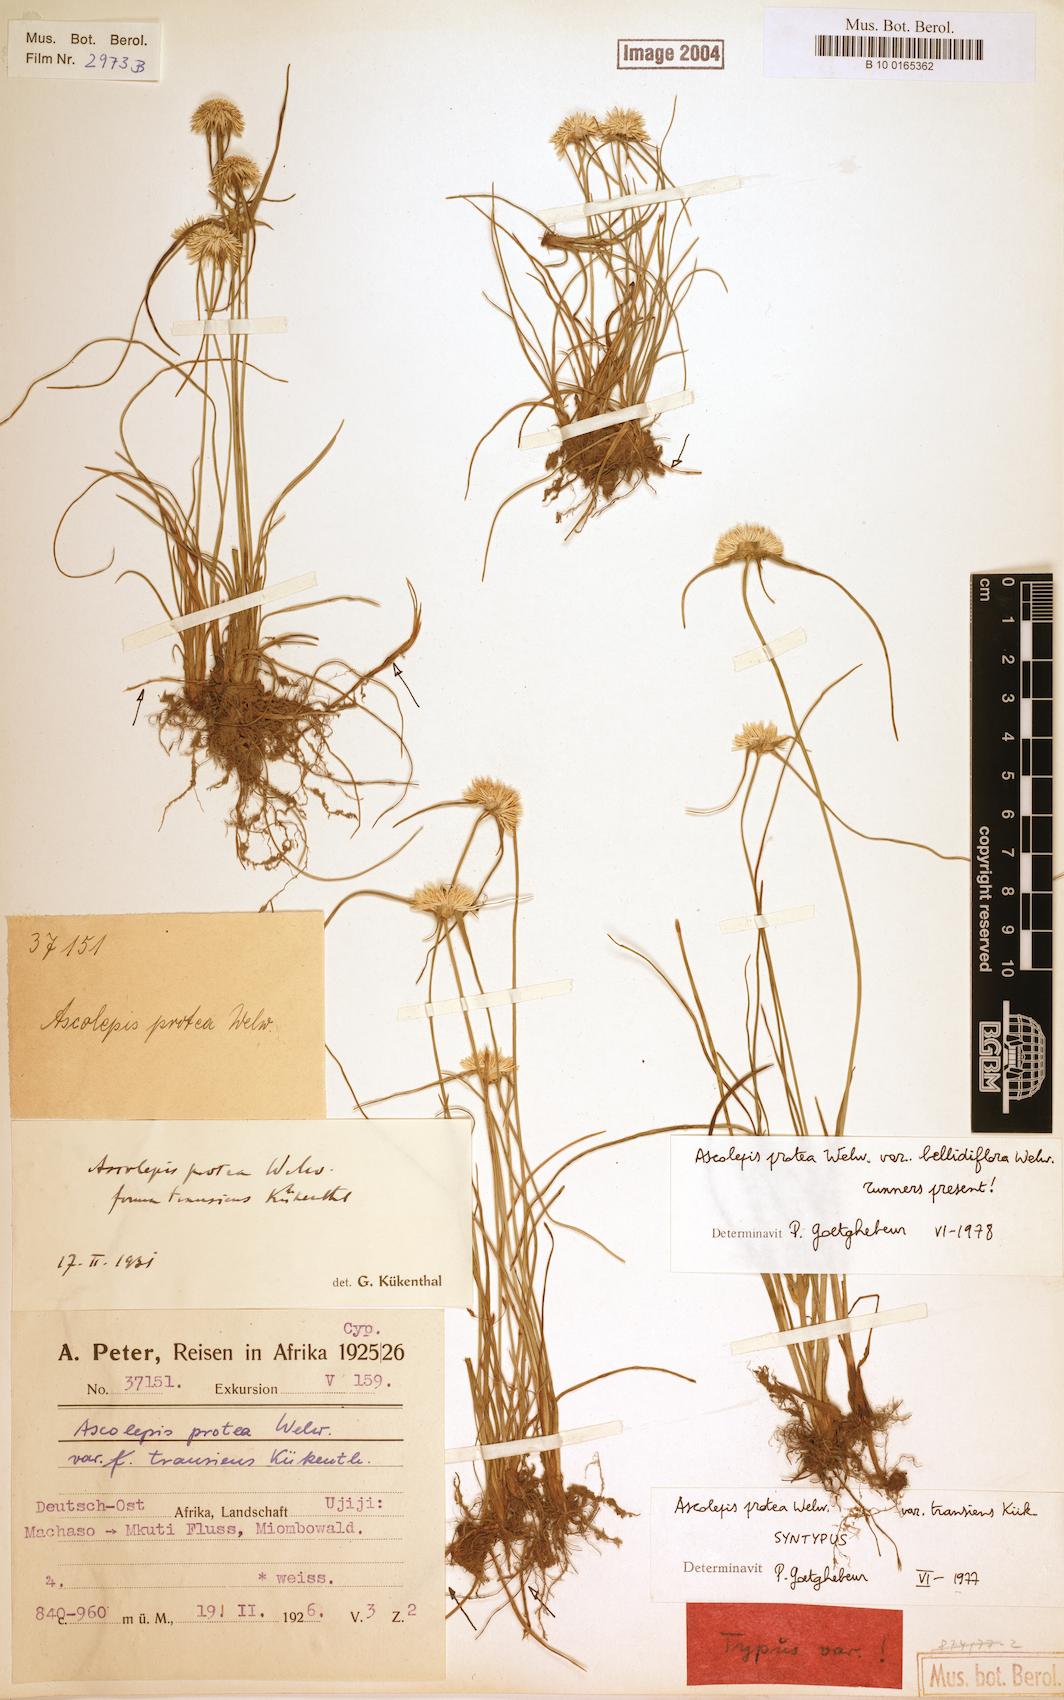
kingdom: Plantae
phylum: Tracheophyta
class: Liliopsida
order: Poales
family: Cyperaceae
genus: Cyperus
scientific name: Cyperus proteus
